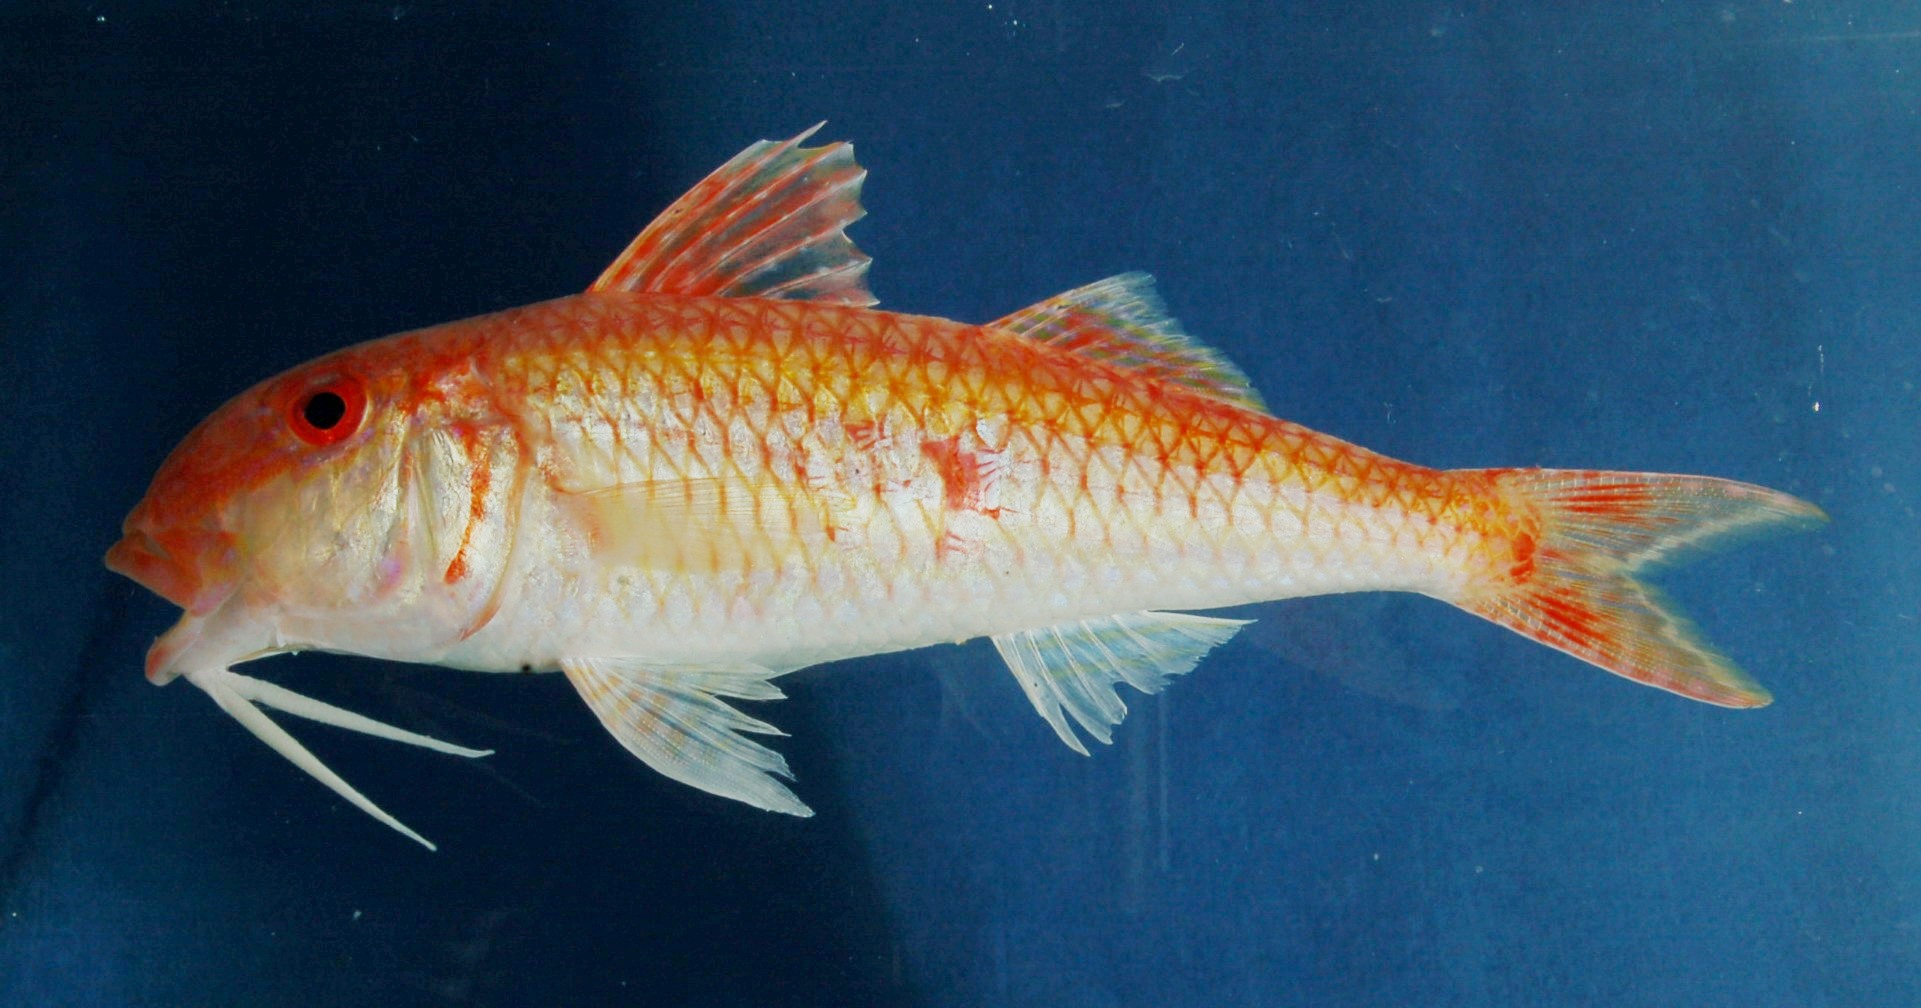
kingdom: Animalia
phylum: Chordata
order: Perciformes
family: Mullidae
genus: Parupeneus
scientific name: Parupeneus nansen
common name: Nansen goatfish
